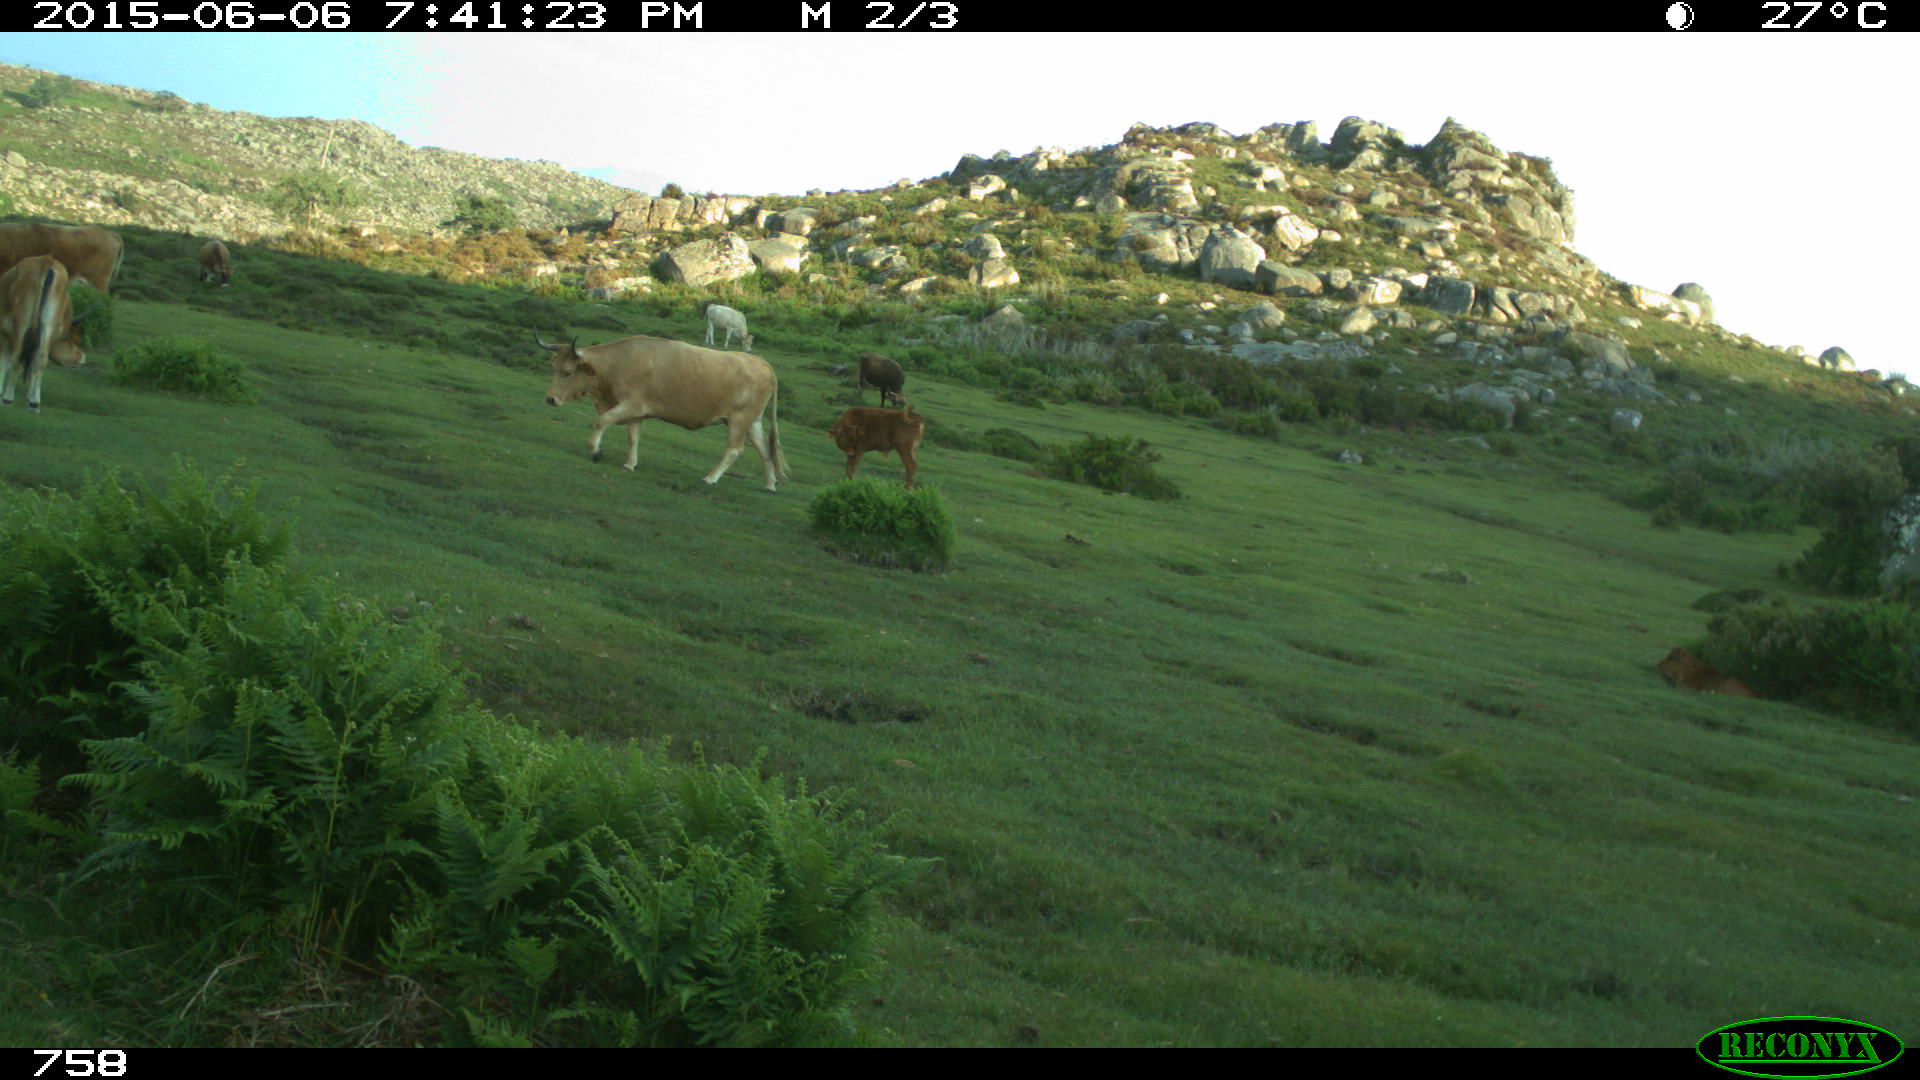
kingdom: Animalia
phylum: Chordata
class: Mammalia
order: Artiodactyla
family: Bovidae
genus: Bos
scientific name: Bos taurus
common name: Domesticated cattle
